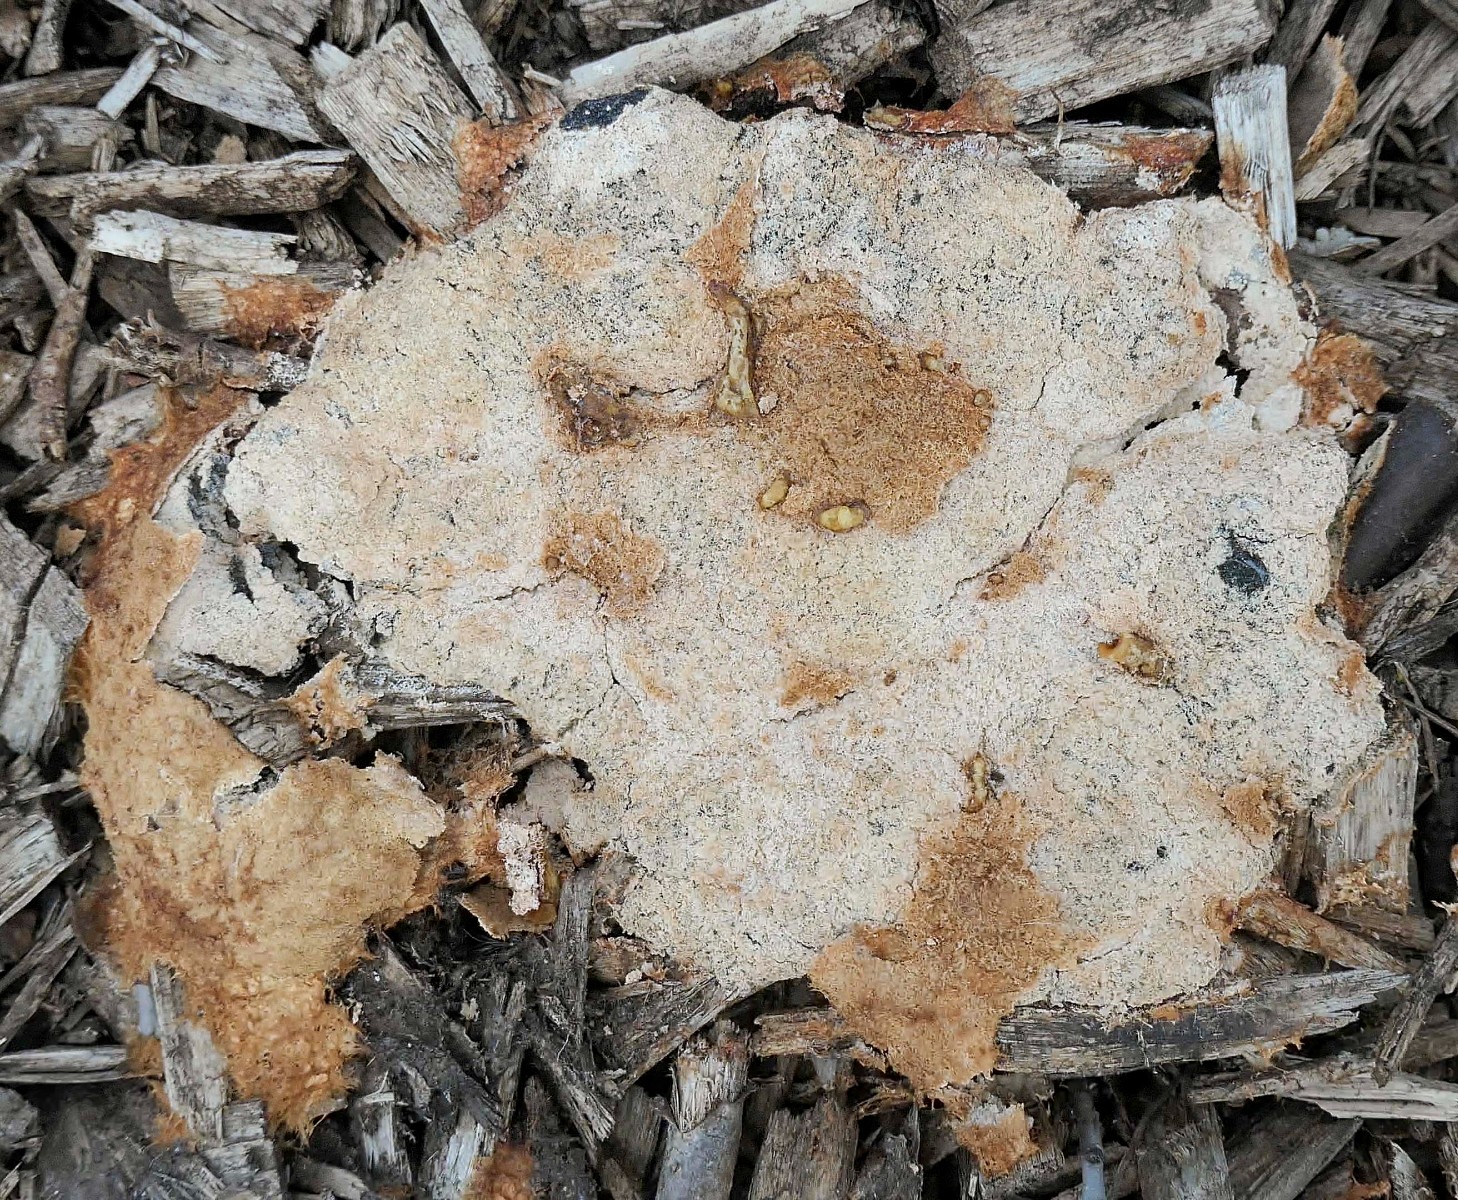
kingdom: Protozoa
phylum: Mycetozoa
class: Myxomycetes
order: Physarales
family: Physaraceae
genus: Fuligo
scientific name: Fuligo septica
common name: Dog vomit slime mold
